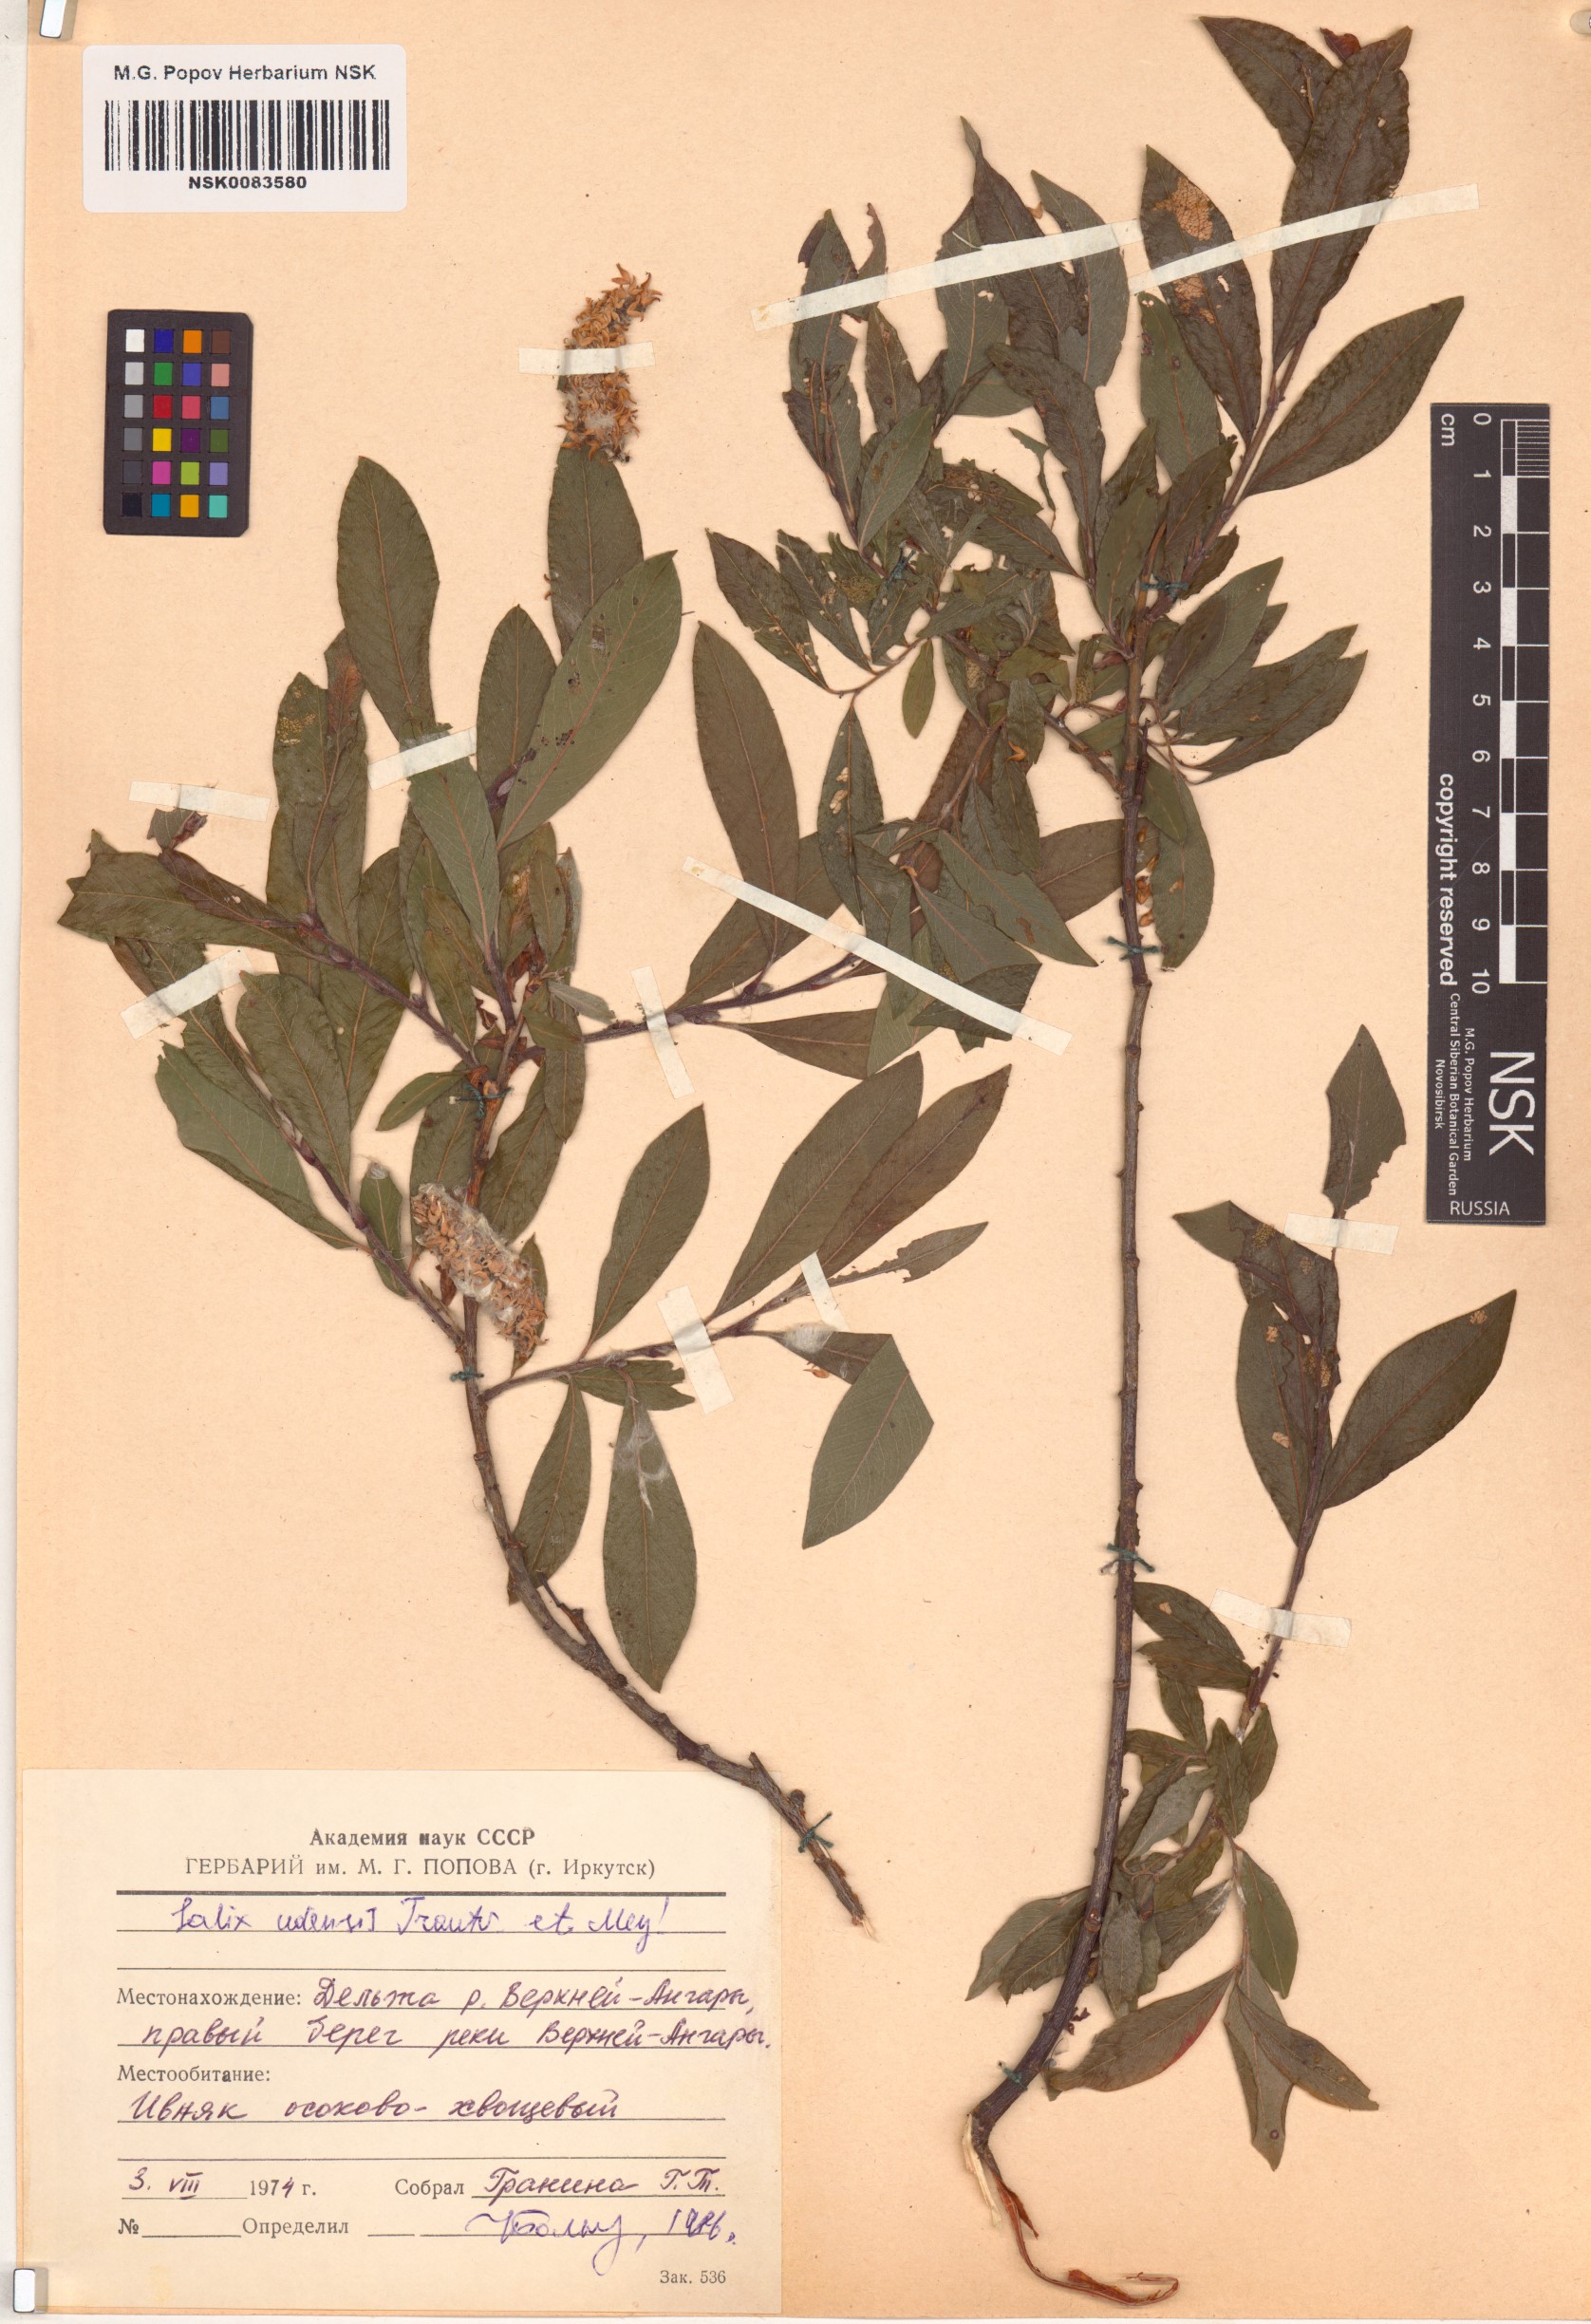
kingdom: Plantae
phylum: Tracheophyta
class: Magnoliopsida
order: Malpighiales
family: Salicaceae
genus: Salix
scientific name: Salix udensis
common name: Sachalin willow
